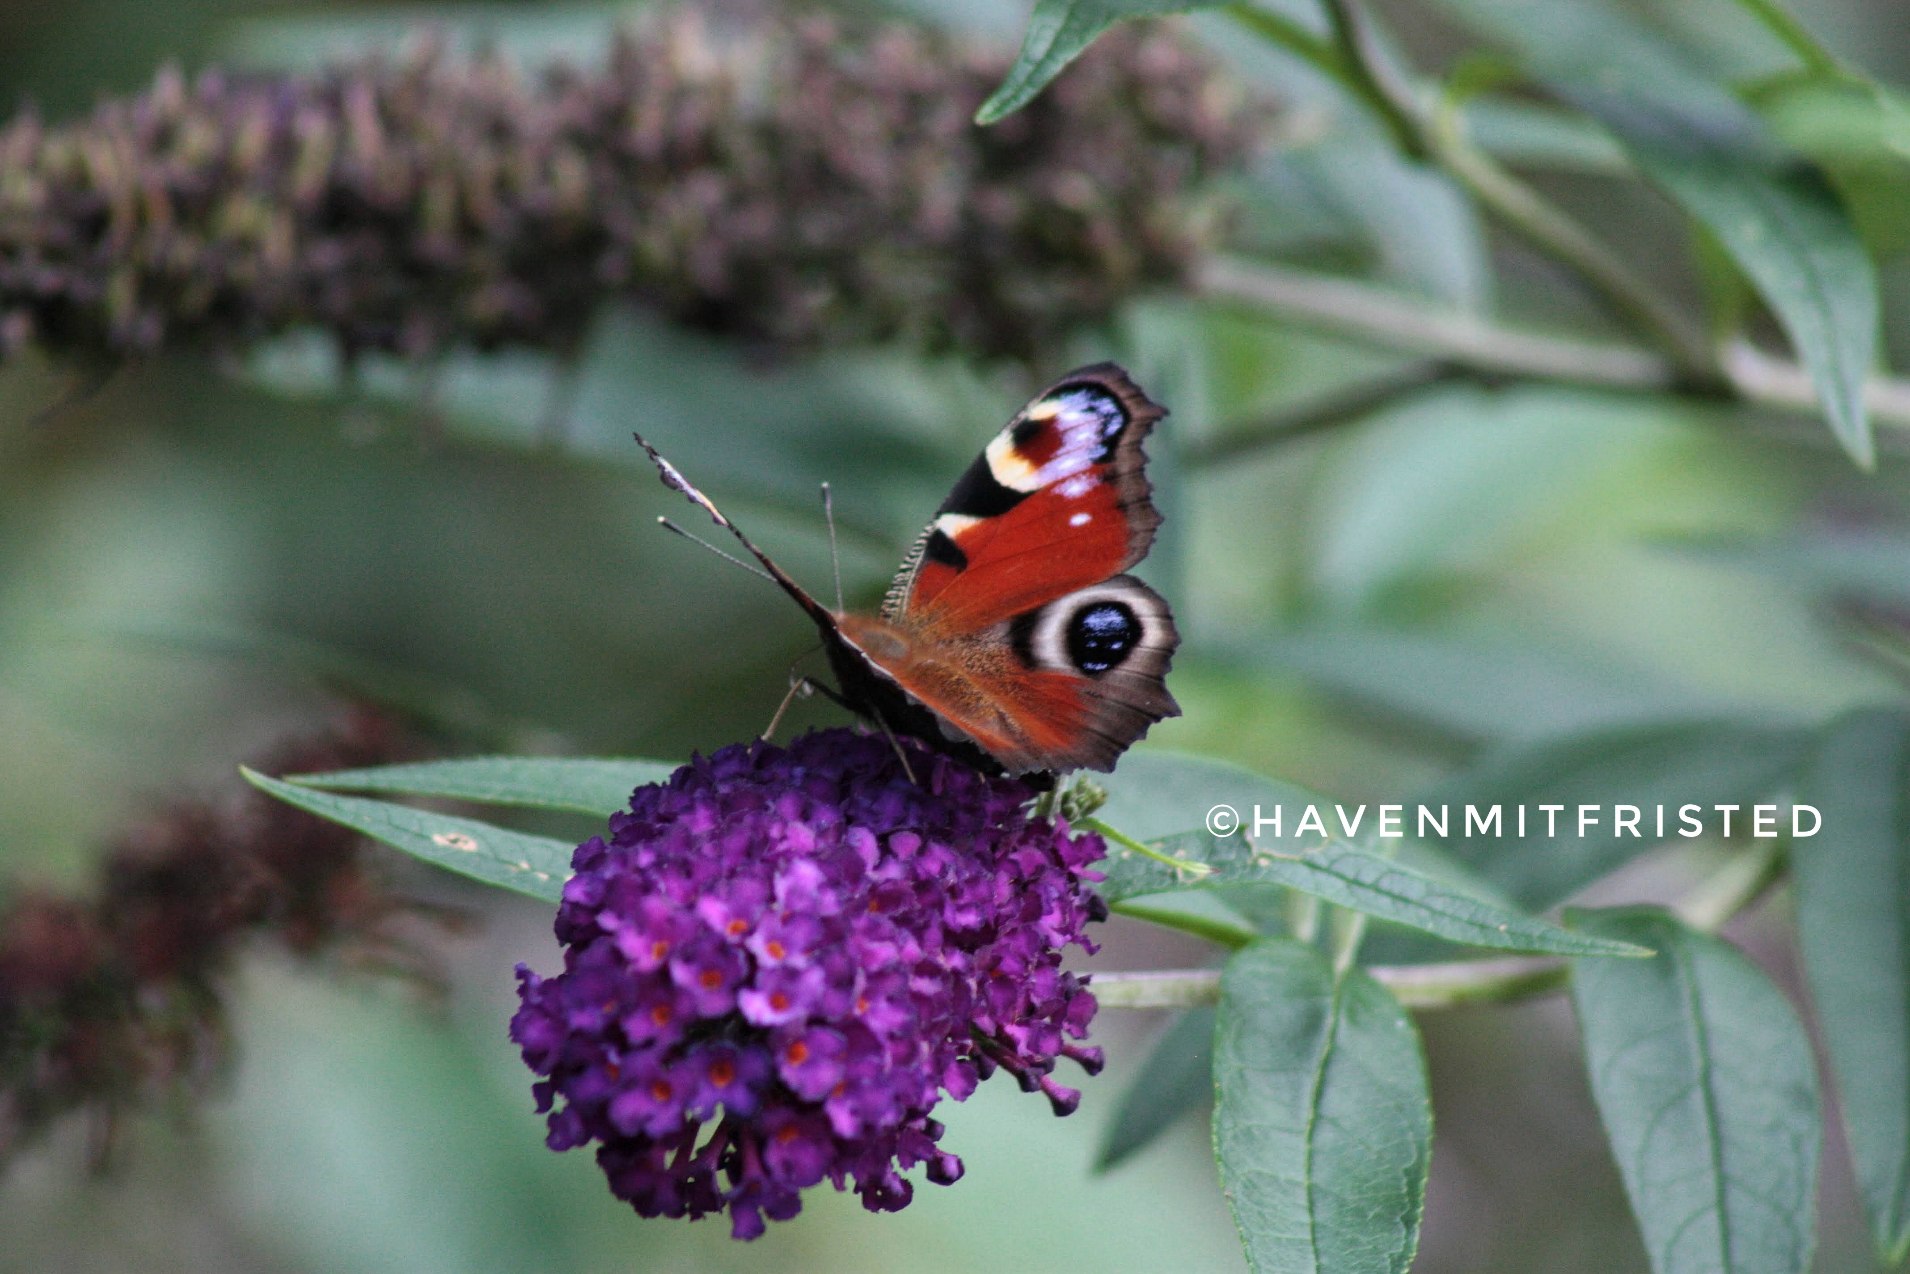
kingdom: Animalia
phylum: Arthropoda
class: Insecta
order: Lepidoptera
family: Nymphalidae
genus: Aglais
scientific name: Aglais io
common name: Dagpåfugleøje
